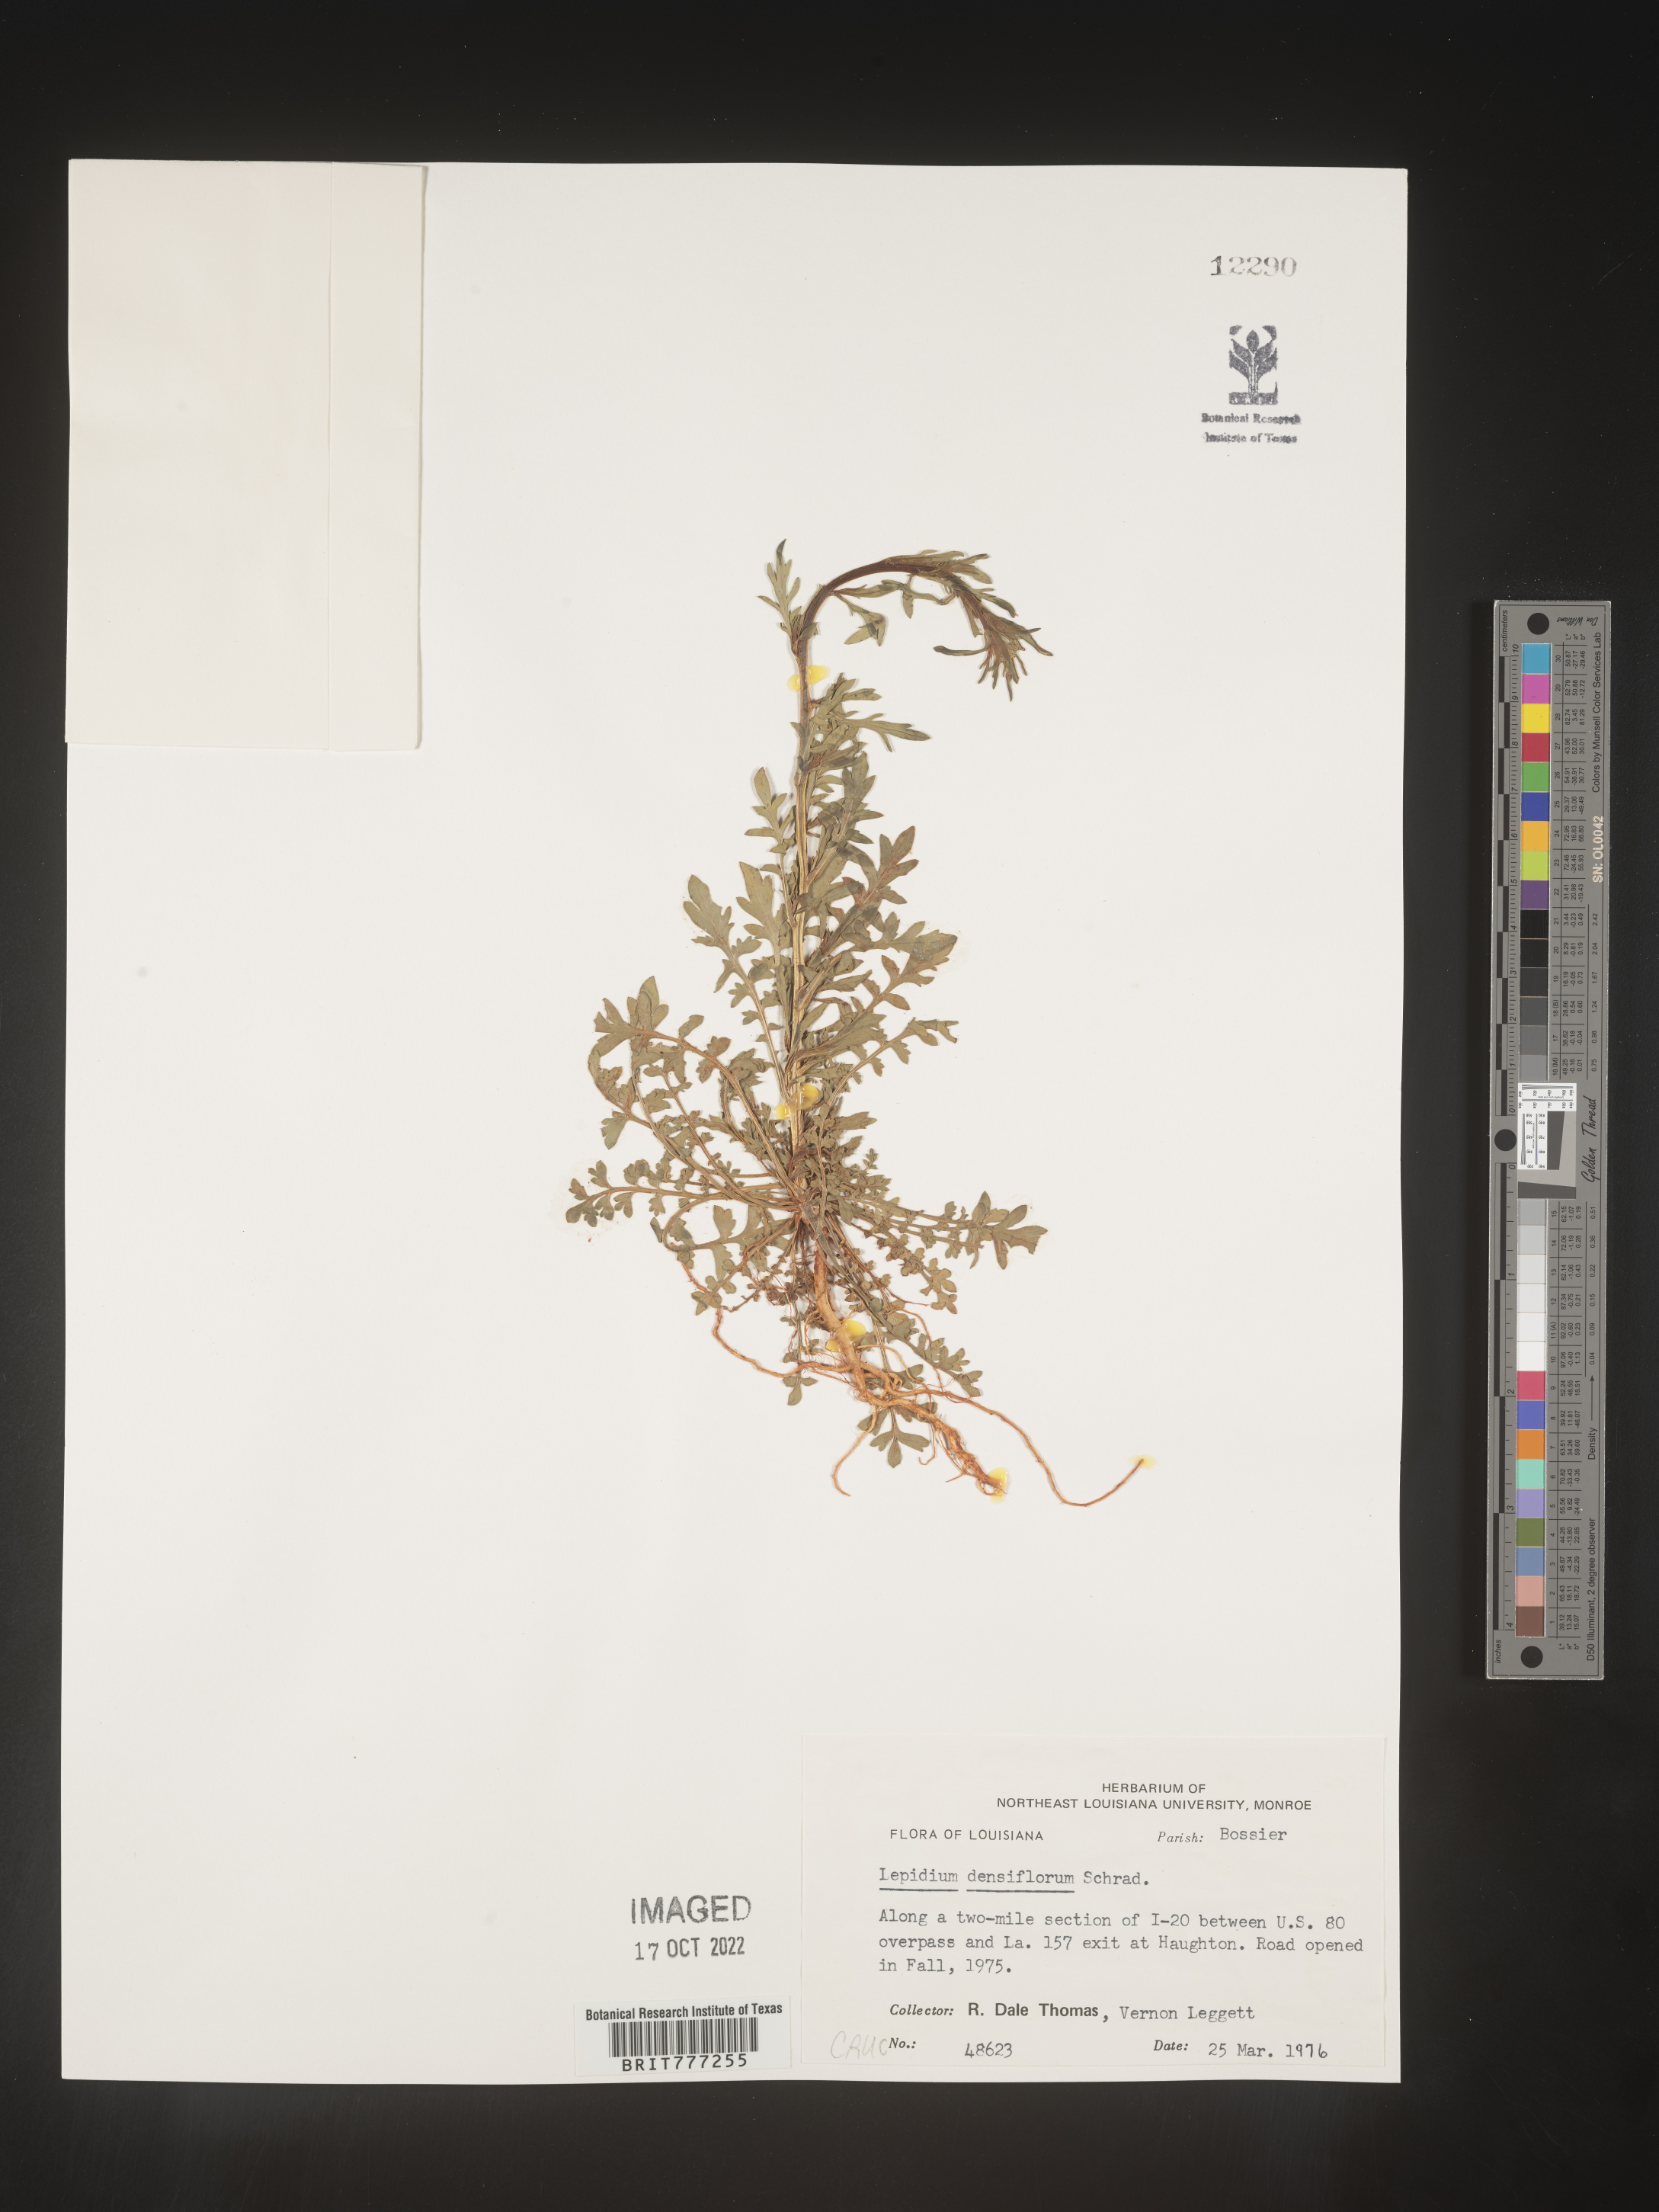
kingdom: Plantae
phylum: Tracheophyta
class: Magnoliopsida
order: Brassicales
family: Brassicaceae
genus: Lepidium
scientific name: Lepidium densiflorum
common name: Miner's pepperwort
